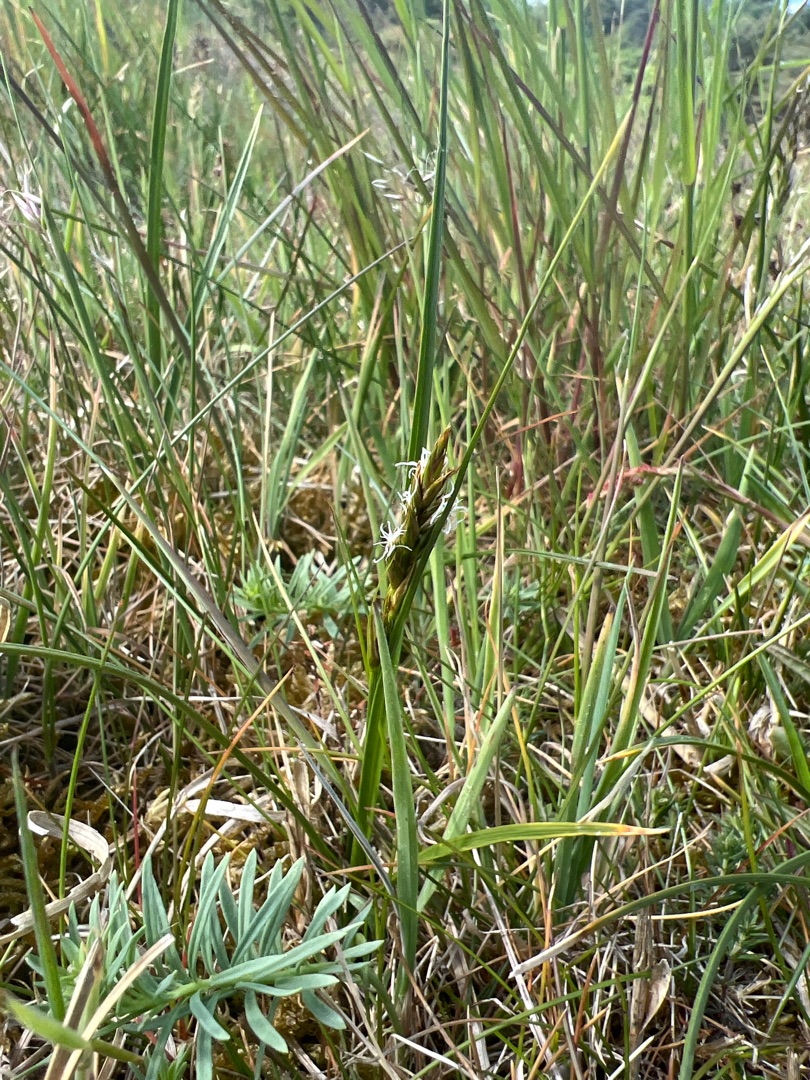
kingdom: Plantae
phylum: Tracheophyta
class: Liliopsida
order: Poales
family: Cyperaceae
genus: Carex
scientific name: Carex arenaria
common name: Sand-star
